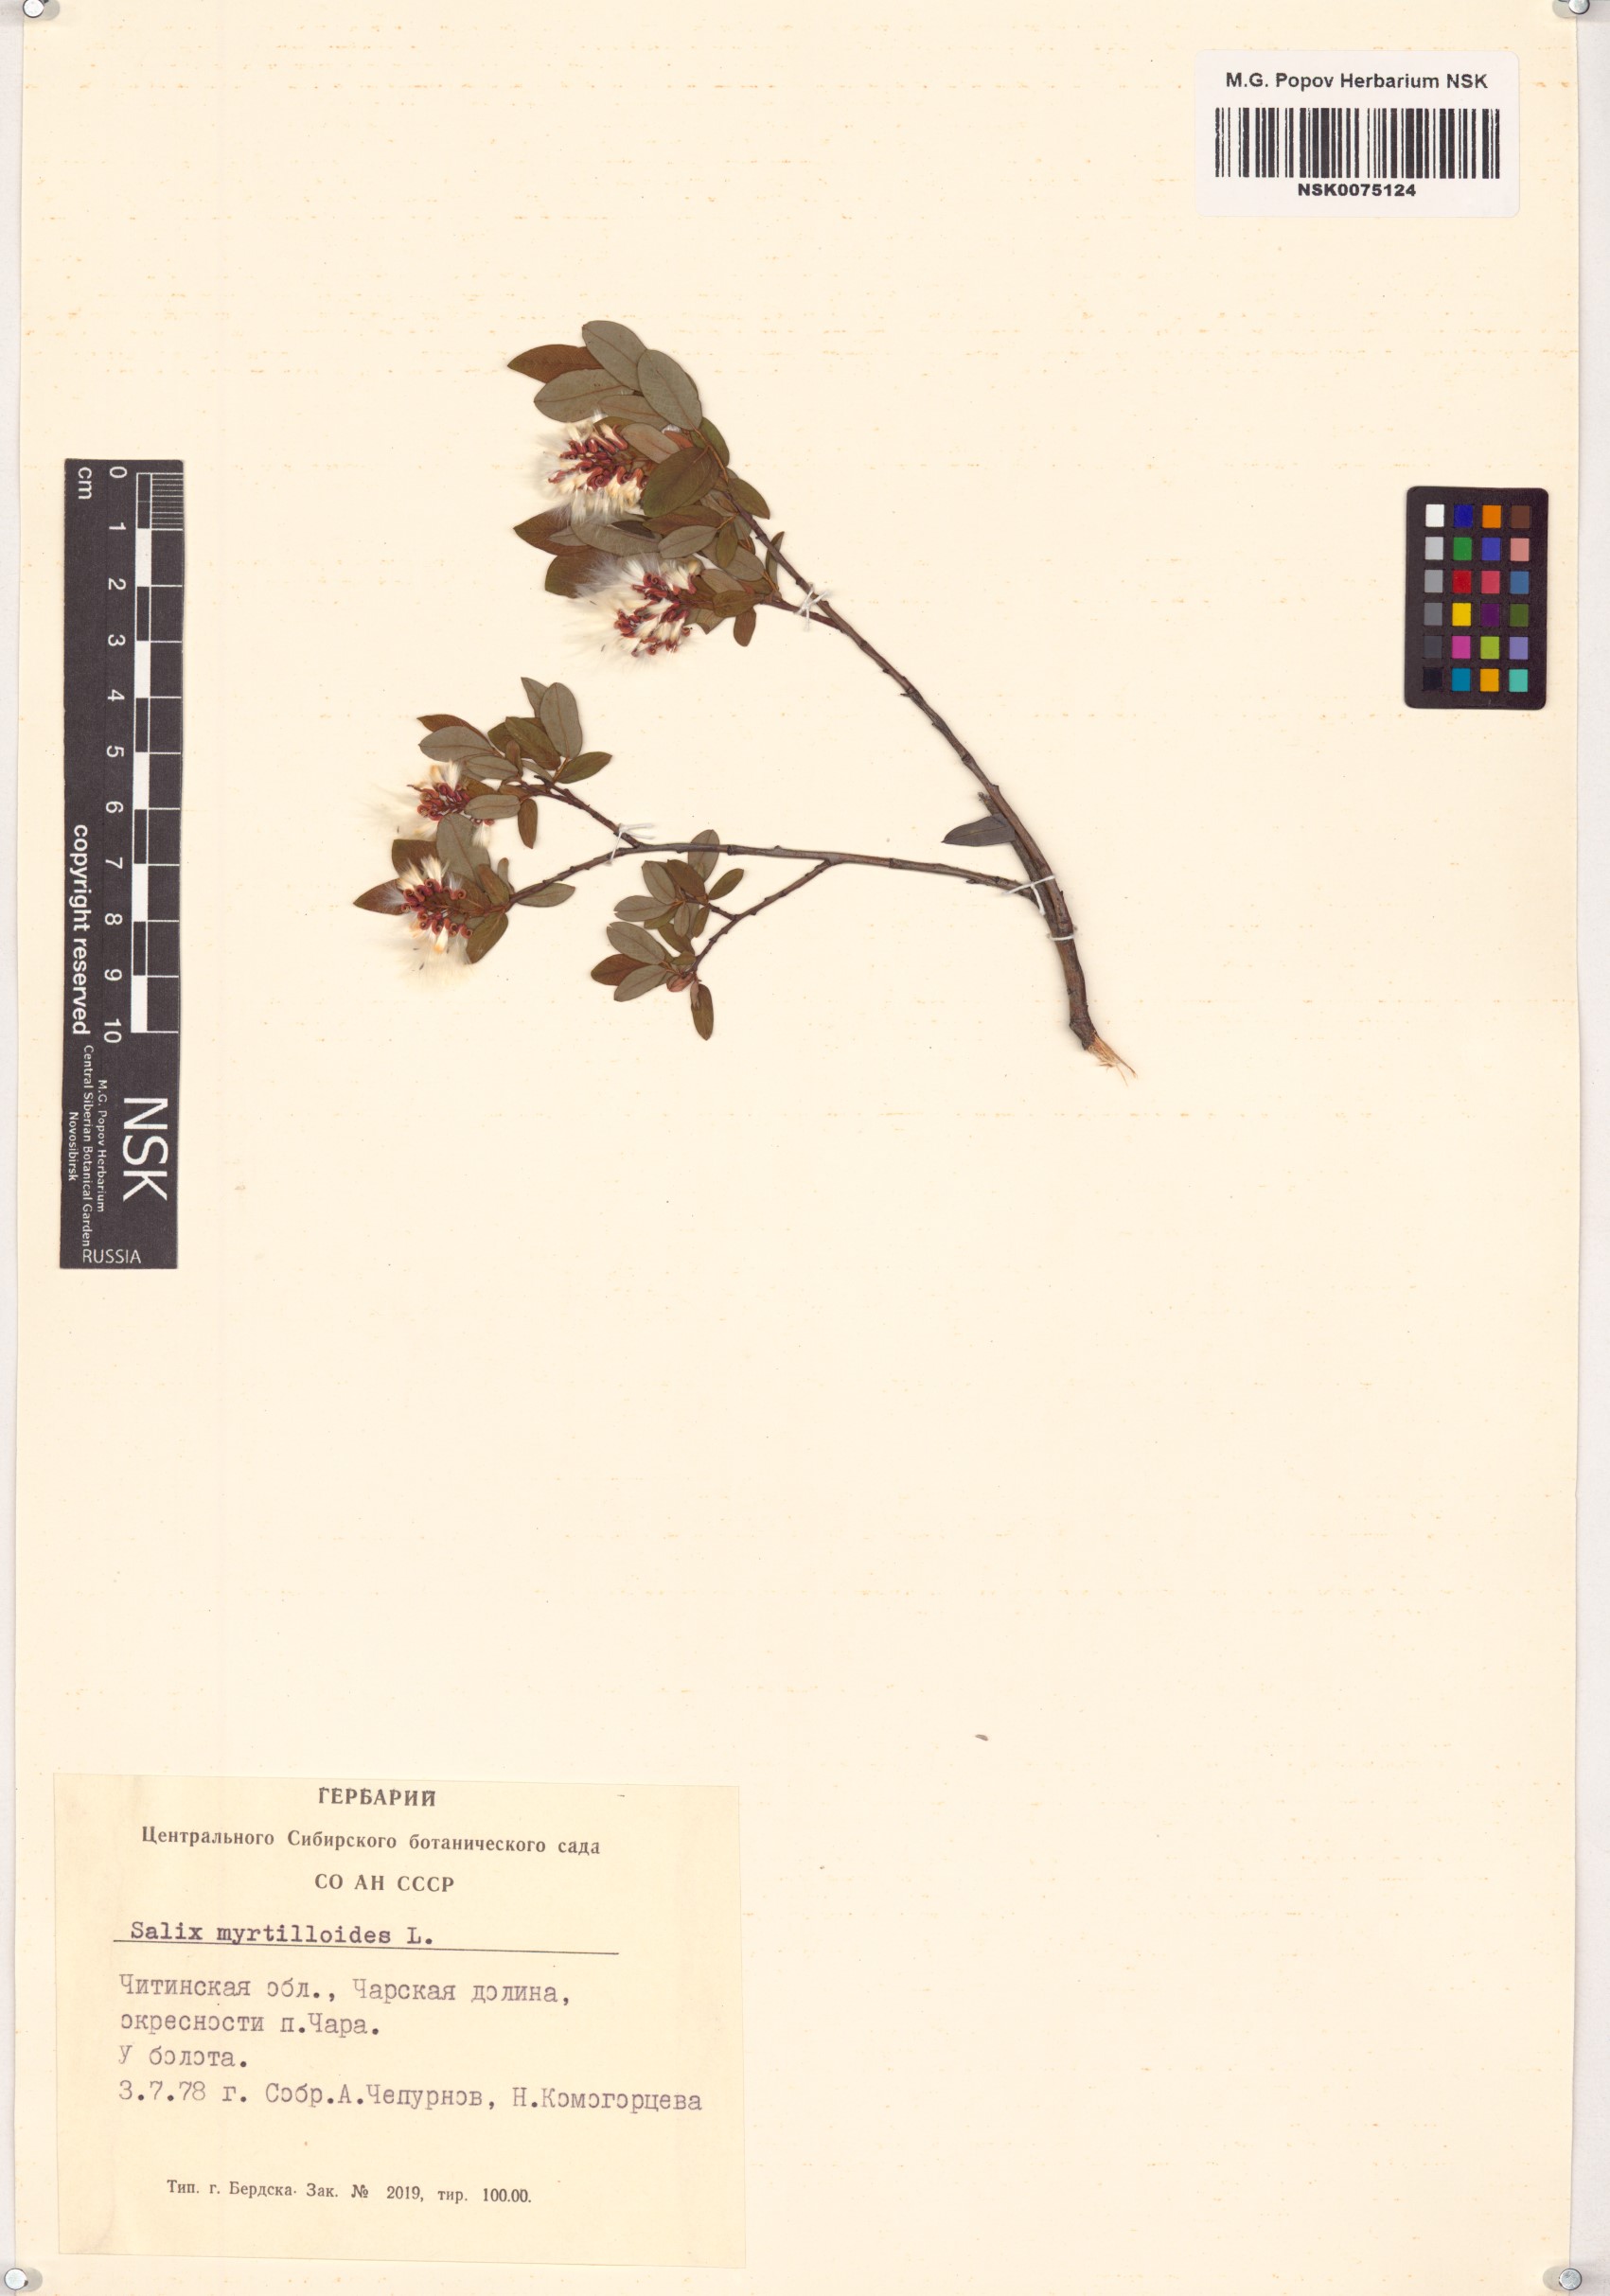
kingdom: Plantae
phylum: Tracheophyta
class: Magnoliopsida
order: Malpighiales
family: Salicaceae
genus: Salix
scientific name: Salix myrtilloides
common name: Myrtle-leaved willow
